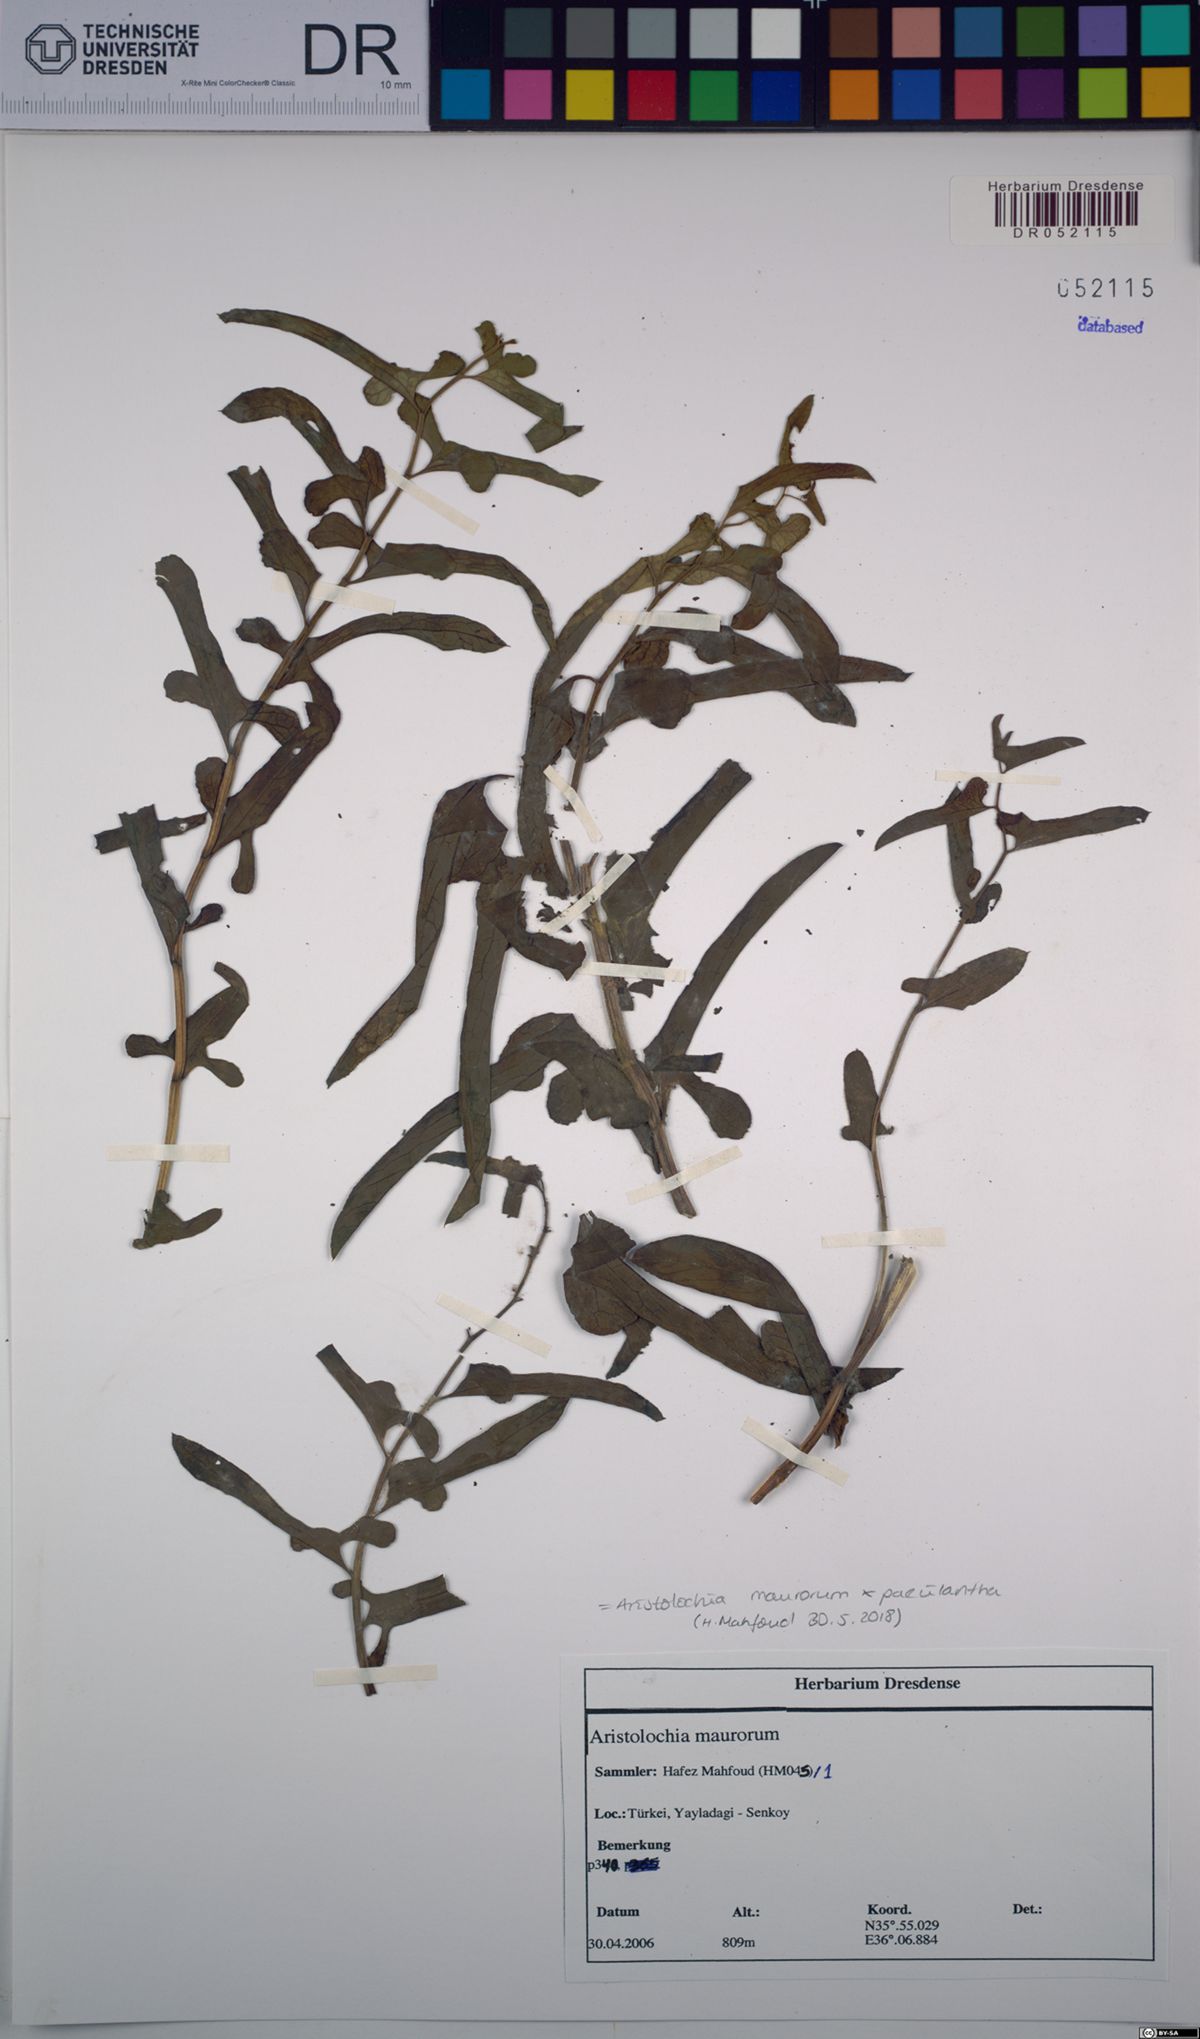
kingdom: Plantae
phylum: Tracheophyta
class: Magnoliopsida
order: Piperales
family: Aristolochiaceae
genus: Aristolochia
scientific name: Aristolochia maurorum
